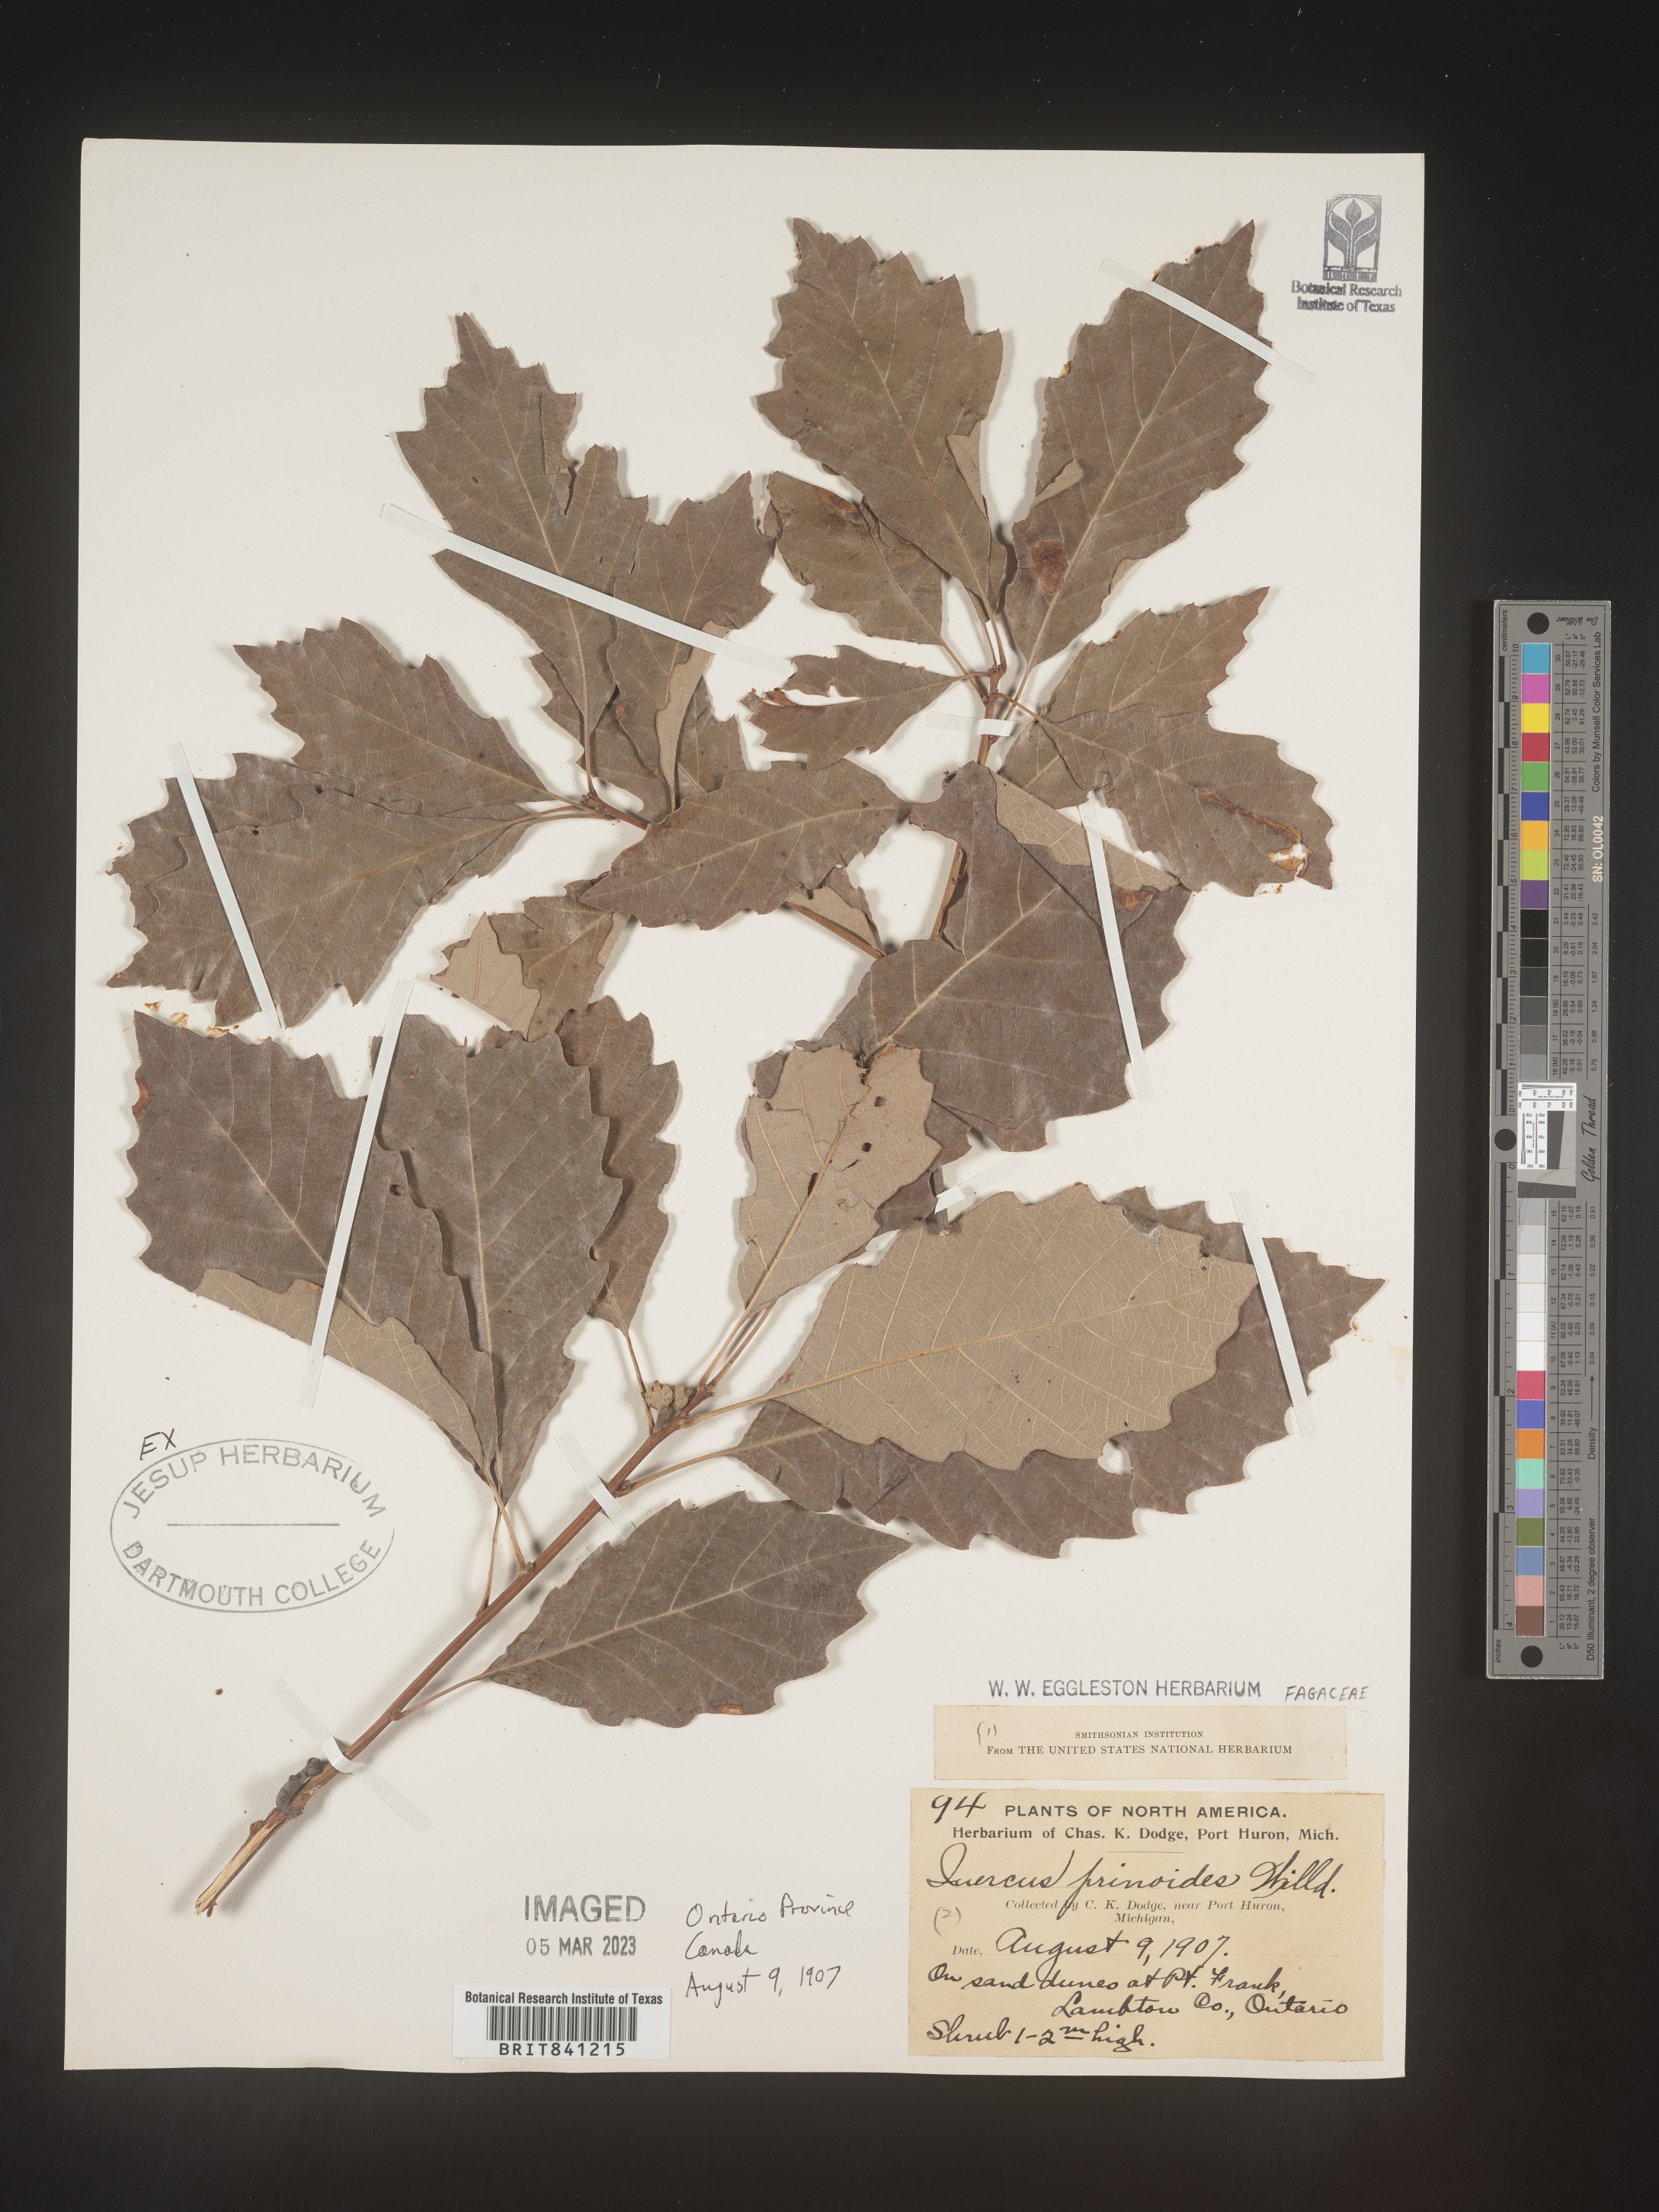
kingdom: Plantae
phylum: Tracheophyta
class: Magnoliopsida
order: Fagales
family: Fagaceae
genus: Quercus
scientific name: Quercus prinoides
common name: Dwarf chinkapin oak
